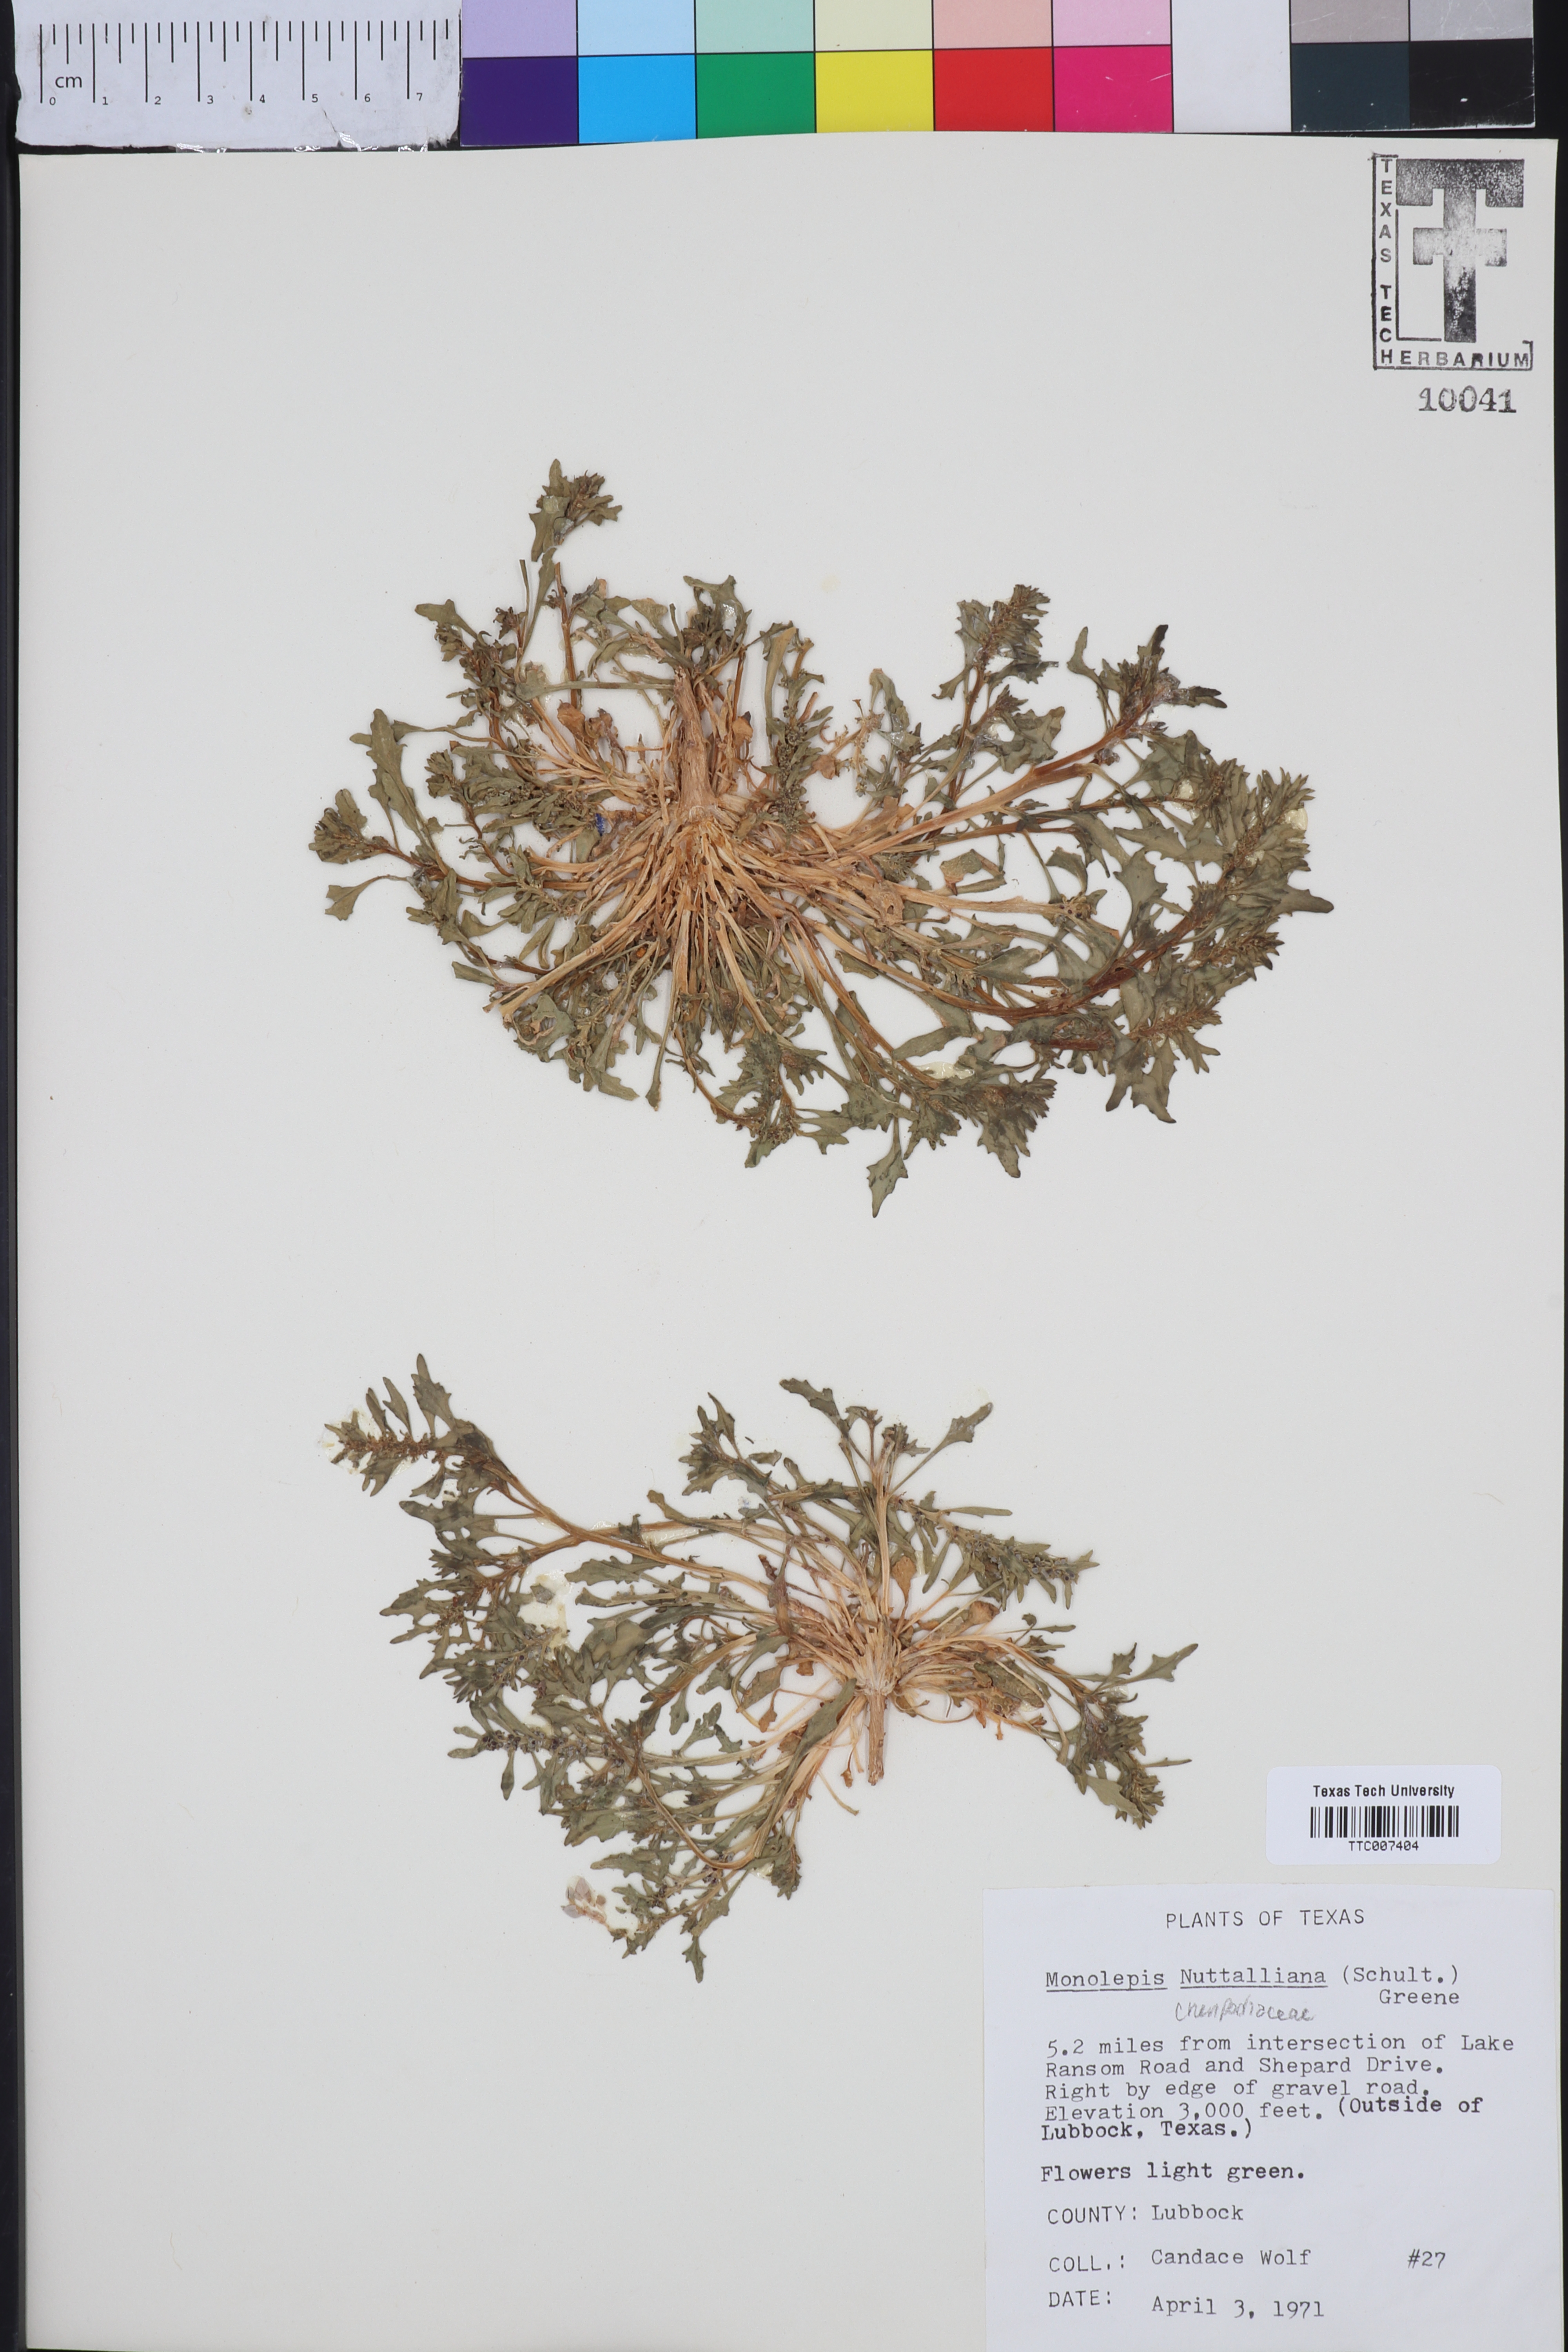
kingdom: Plantae
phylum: Tracheophyta
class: Magnoliopsida
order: Caryophyllales
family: Amaranthaceae
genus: Blitum
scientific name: Blitum nuttallianum
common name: Poverty-weed
